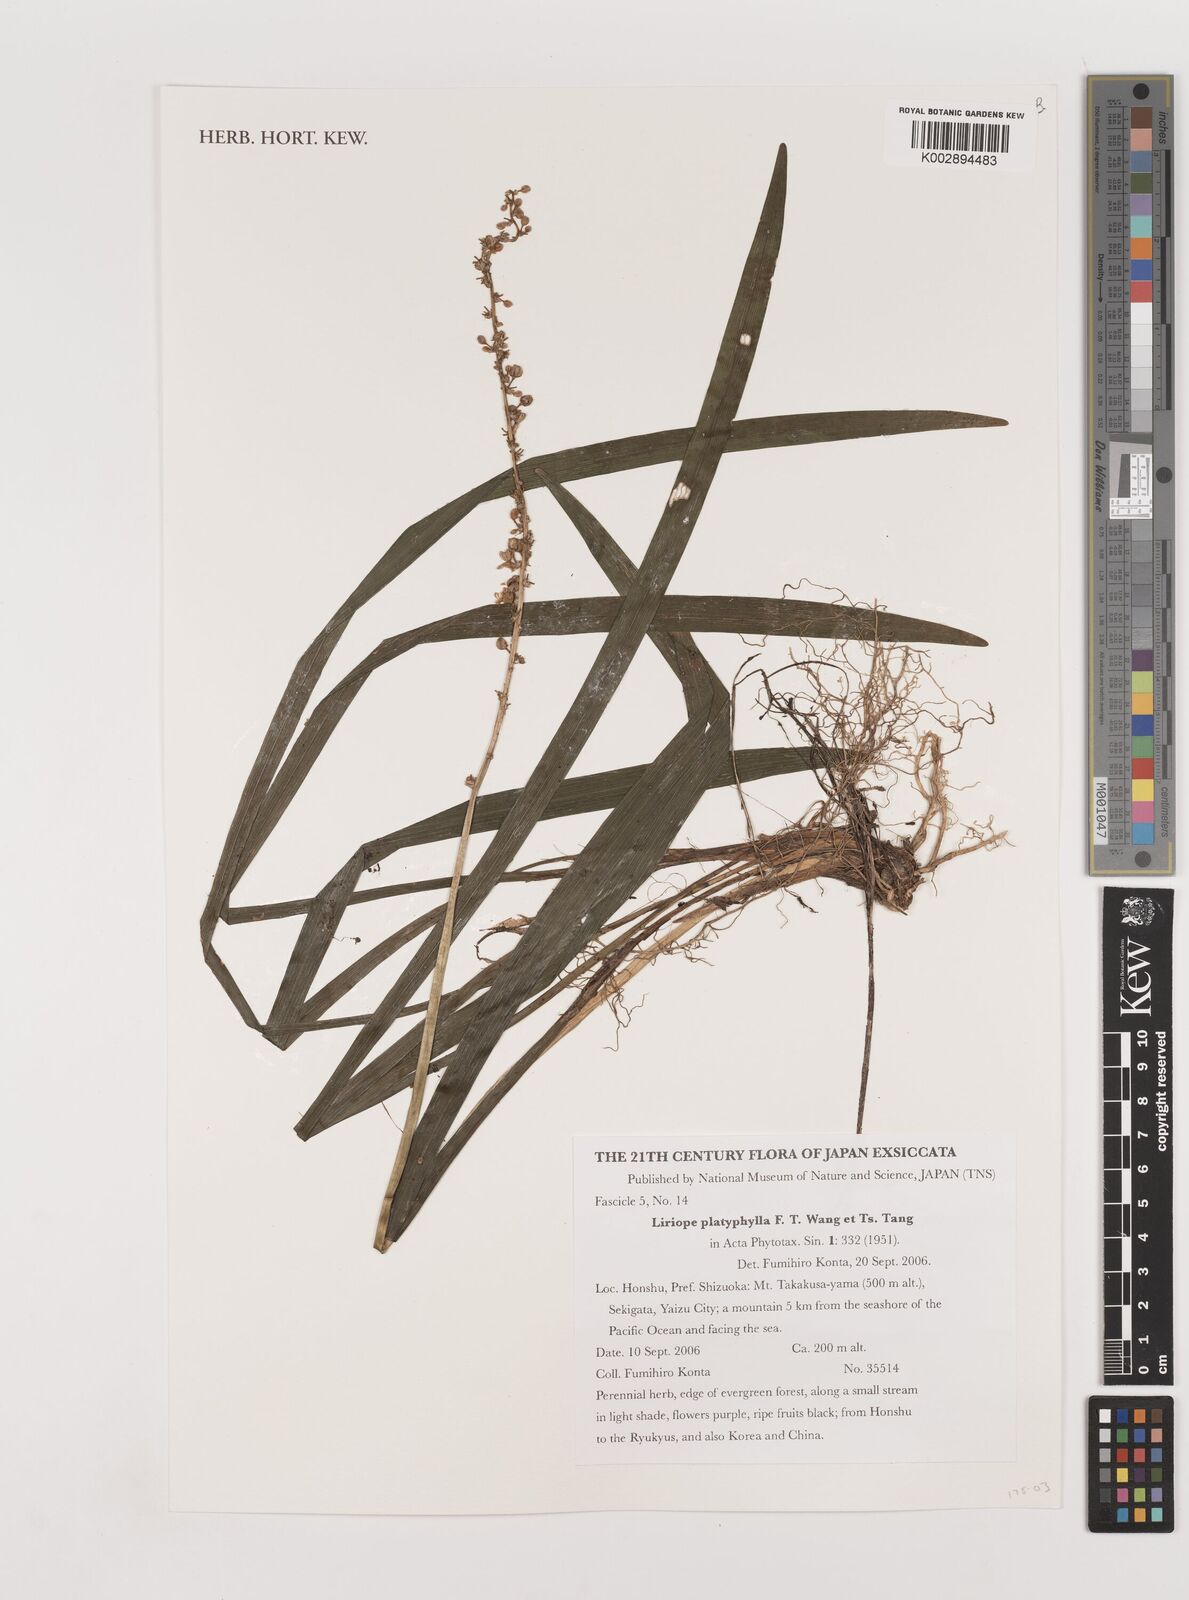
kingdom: Plantae
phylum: Tracheophyta
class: Liliopsida
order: Asparagales
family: Asparagaceae
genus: Liriope
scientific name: Liriope muscari
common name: Big blue lilyturf
